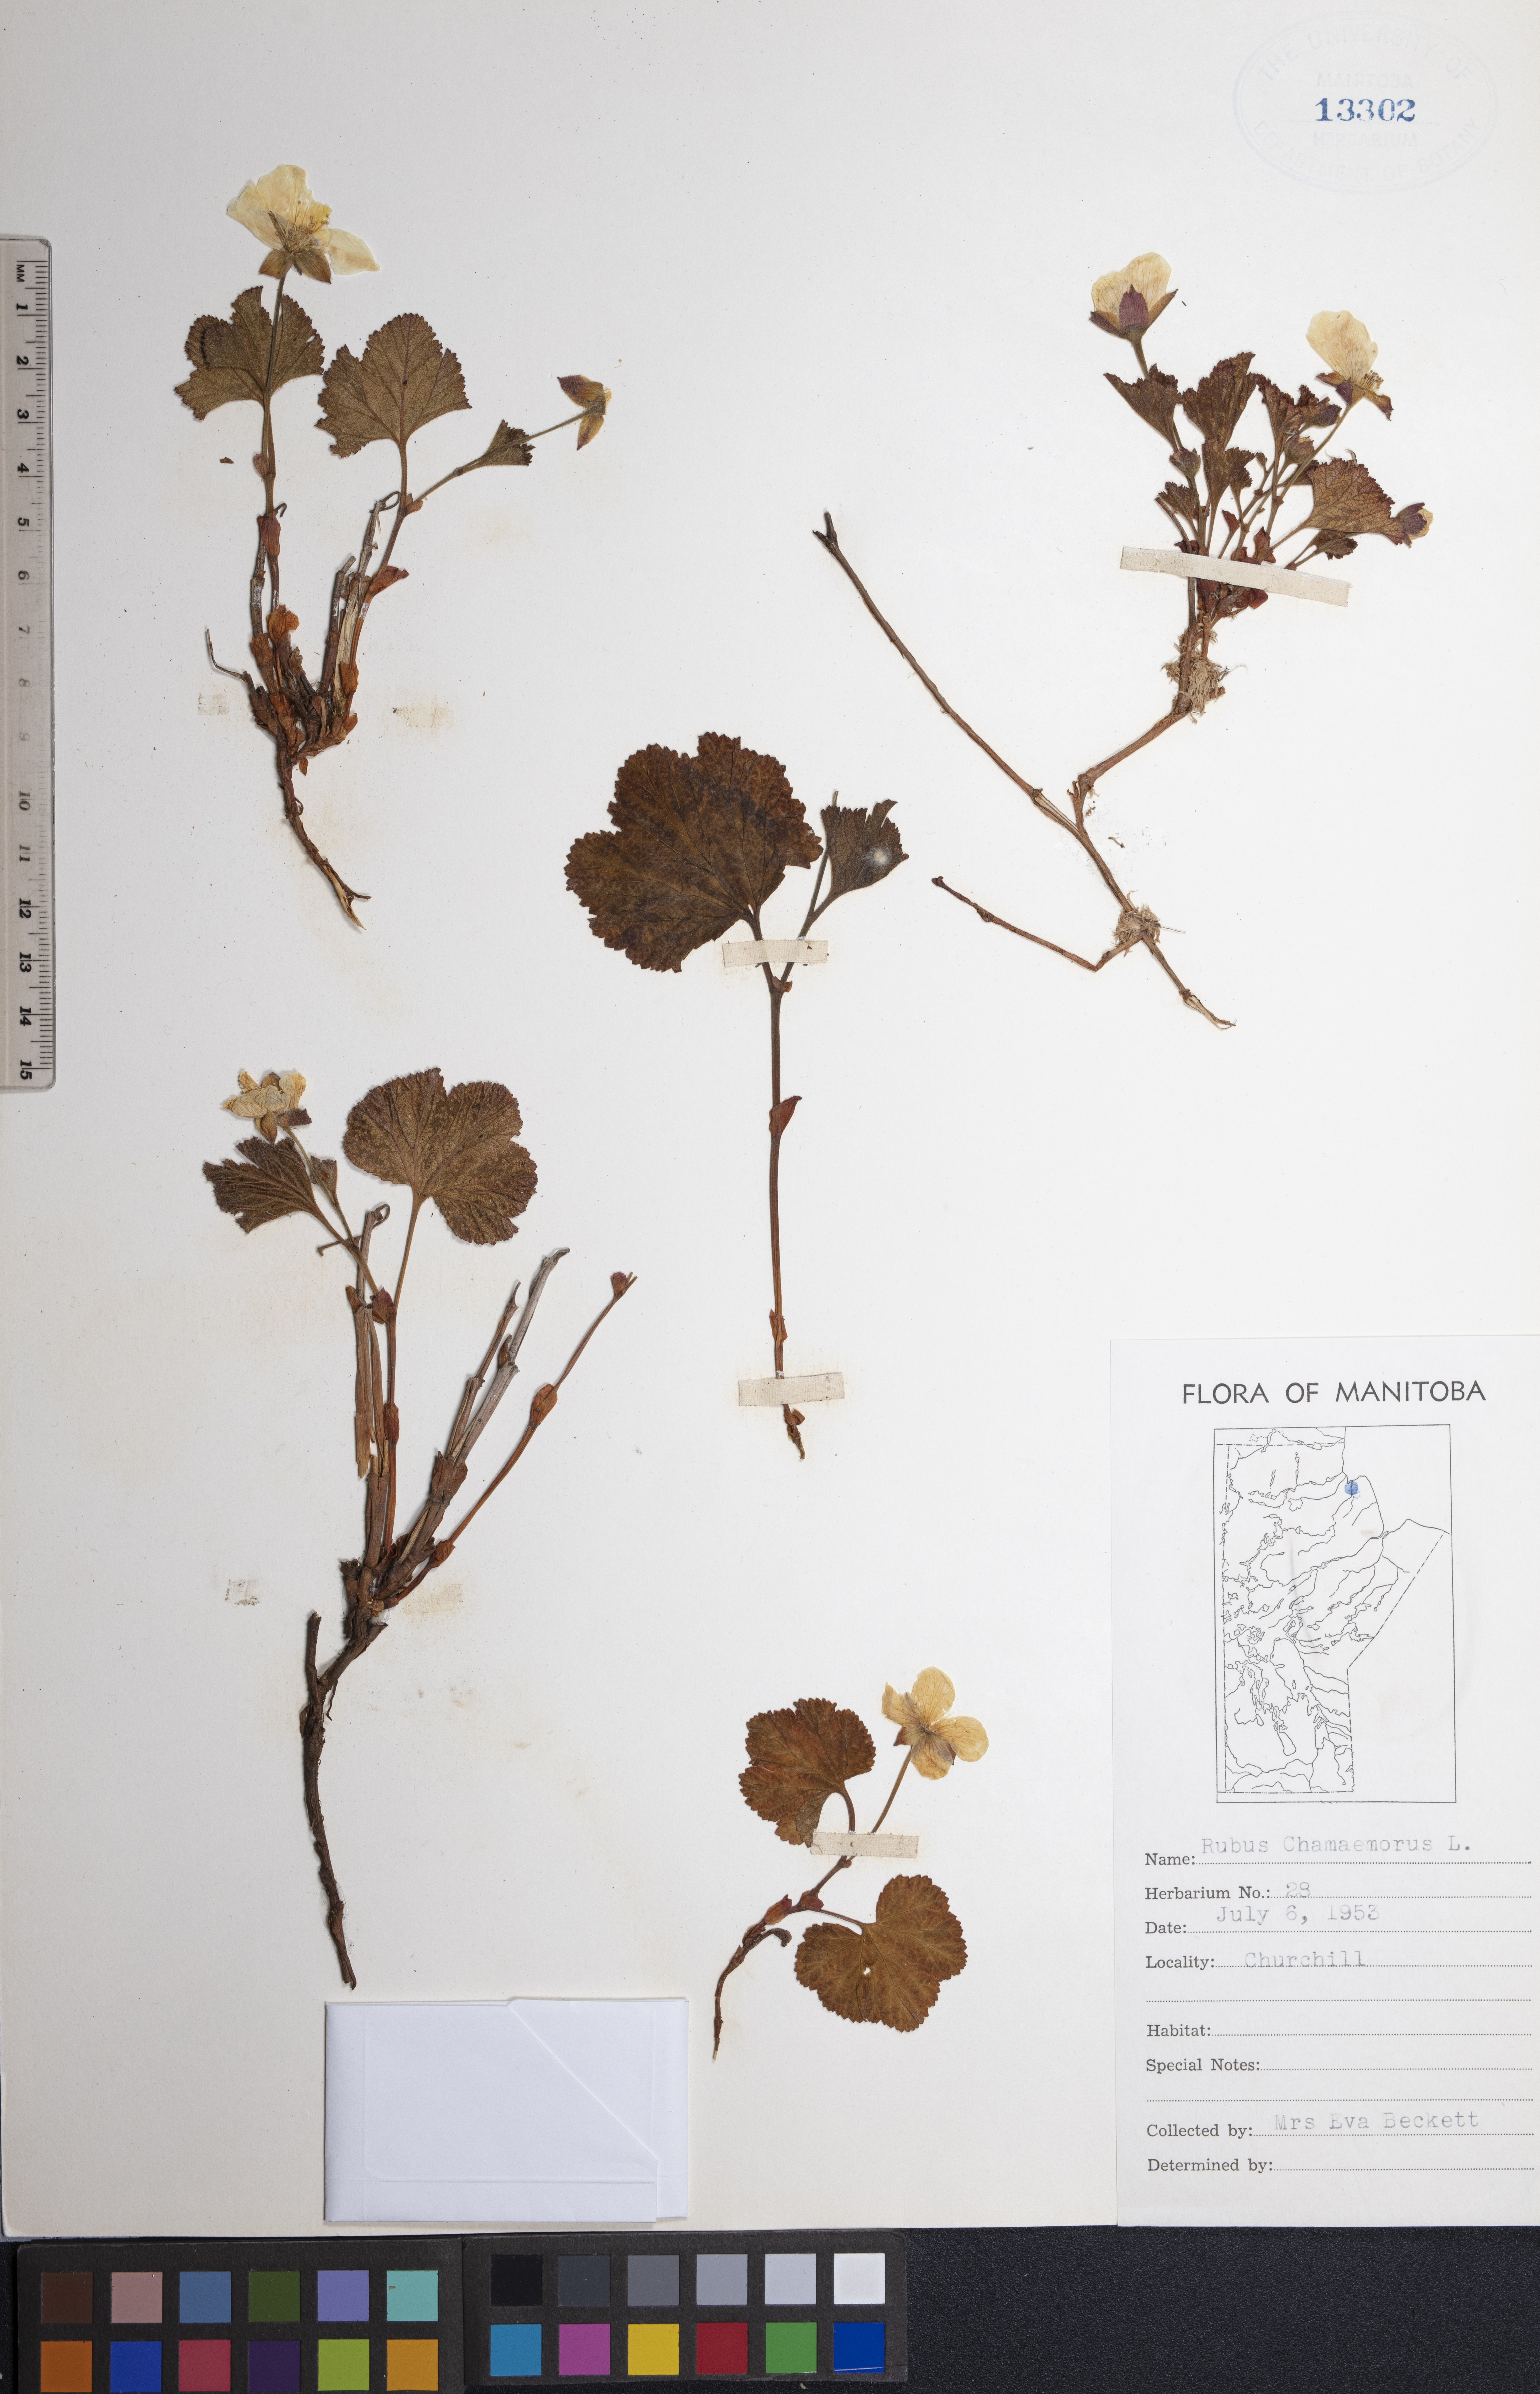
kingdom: Plantae
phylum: Tracheophyta
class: Magnoliopsida
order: Rosales
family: Rosaceae
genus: Rubus
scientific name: Rubus chamaemorus
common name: Cloudberry
